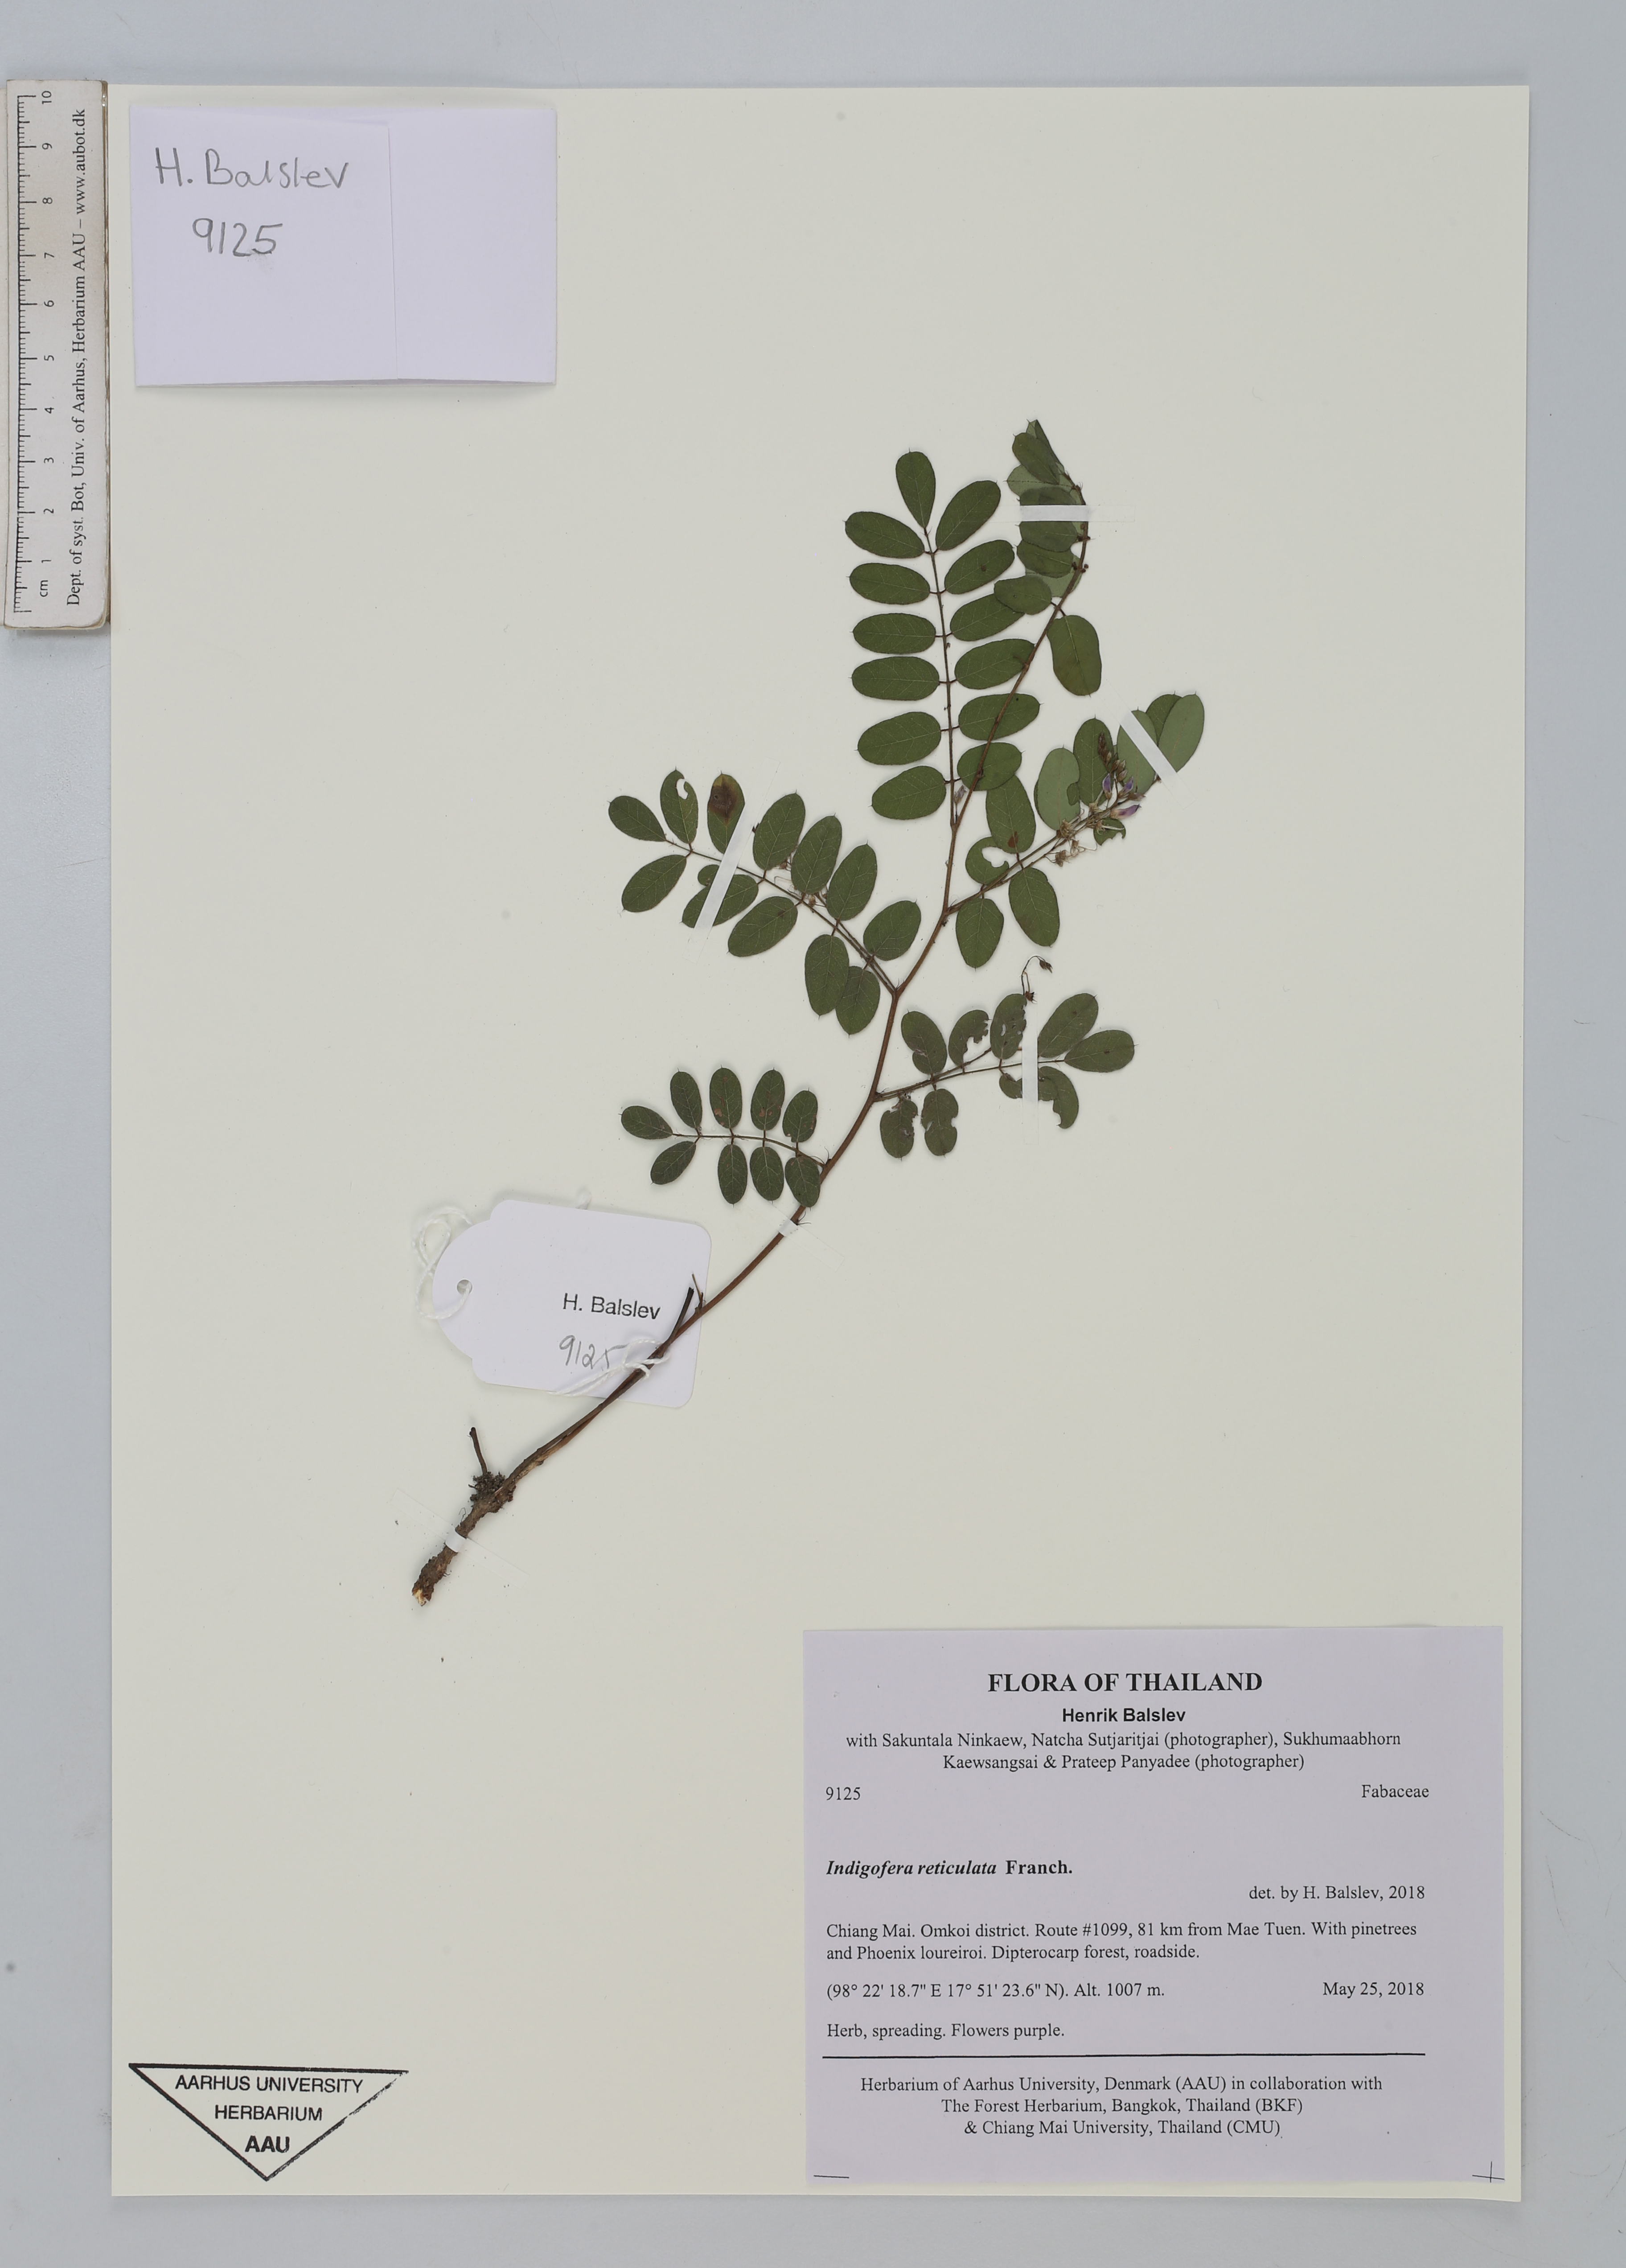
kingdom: Plantae
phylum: Tracheophyta
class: Magnoliopsida
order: Fabales
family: Fabaceae
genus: Indigofera
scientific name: Indigofera reticulata
